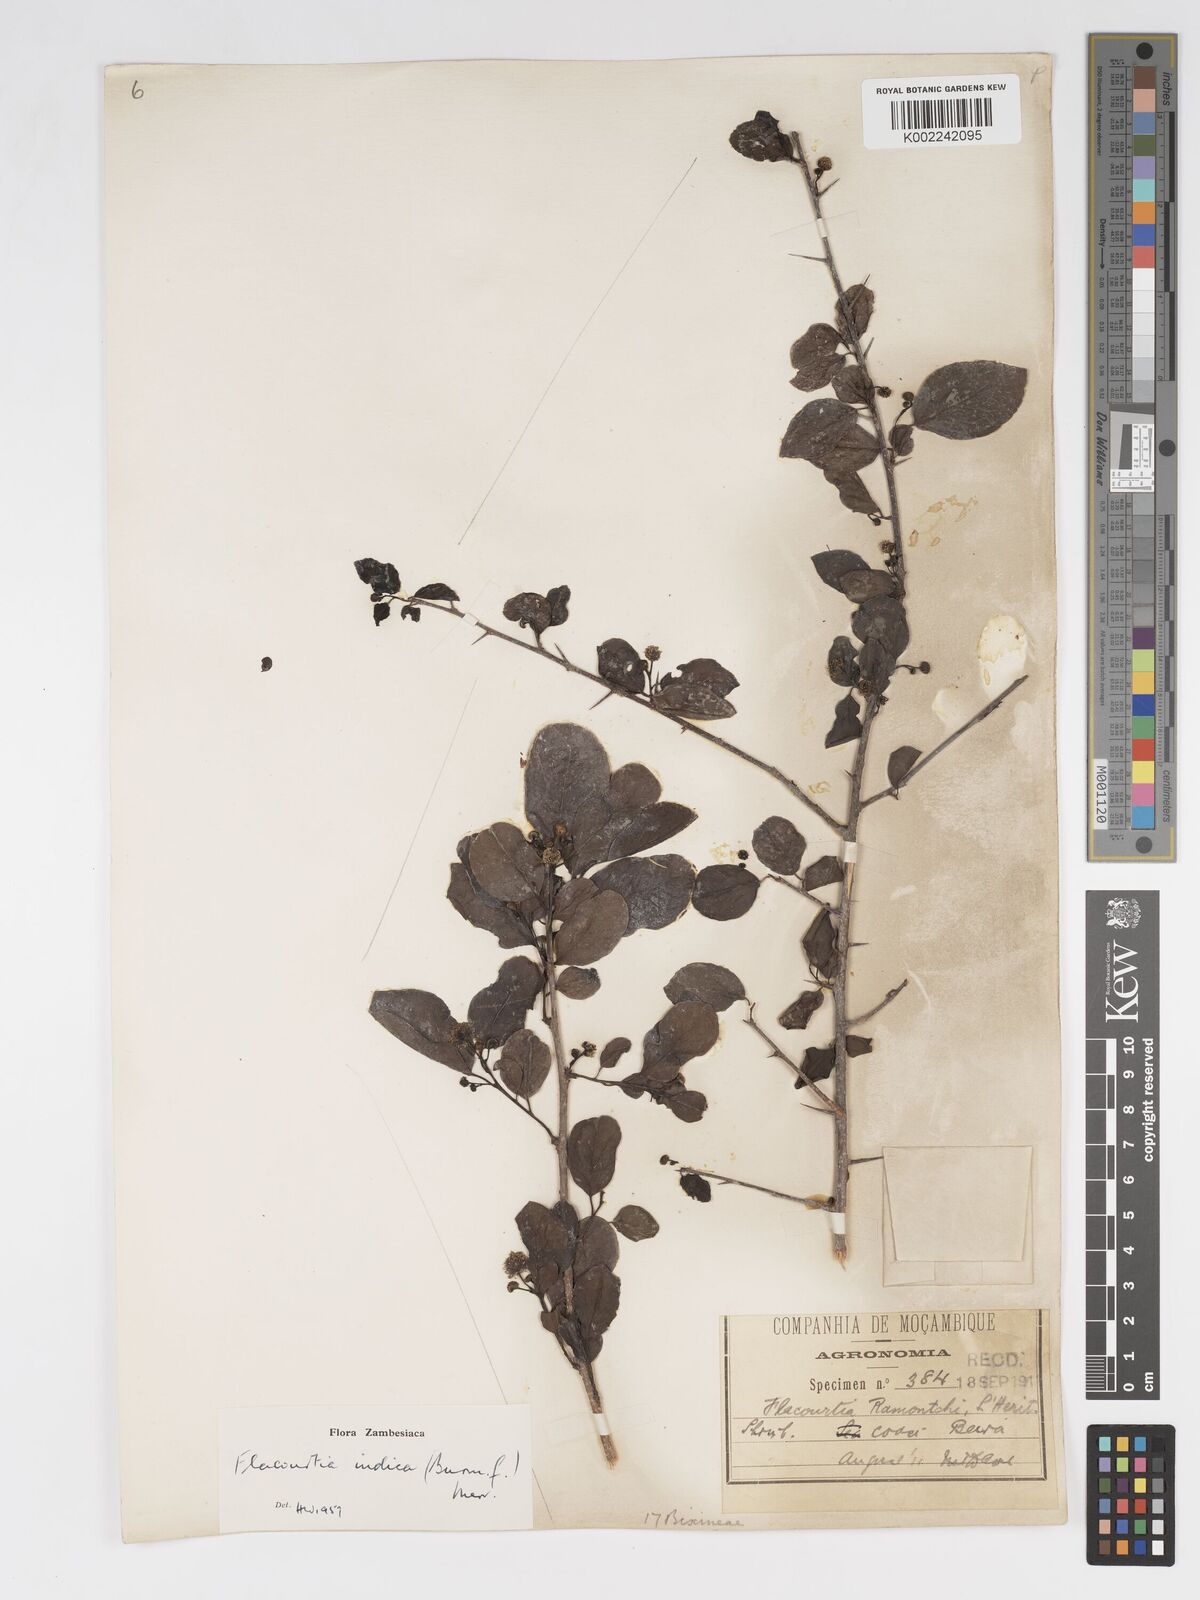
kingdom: Plantae
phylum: Tracheophyta
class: Magnoliopsida
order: Malpighiales
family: Salicaceae
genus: Flacourtia
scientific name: Flacourtia indica
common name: Governor's plum
